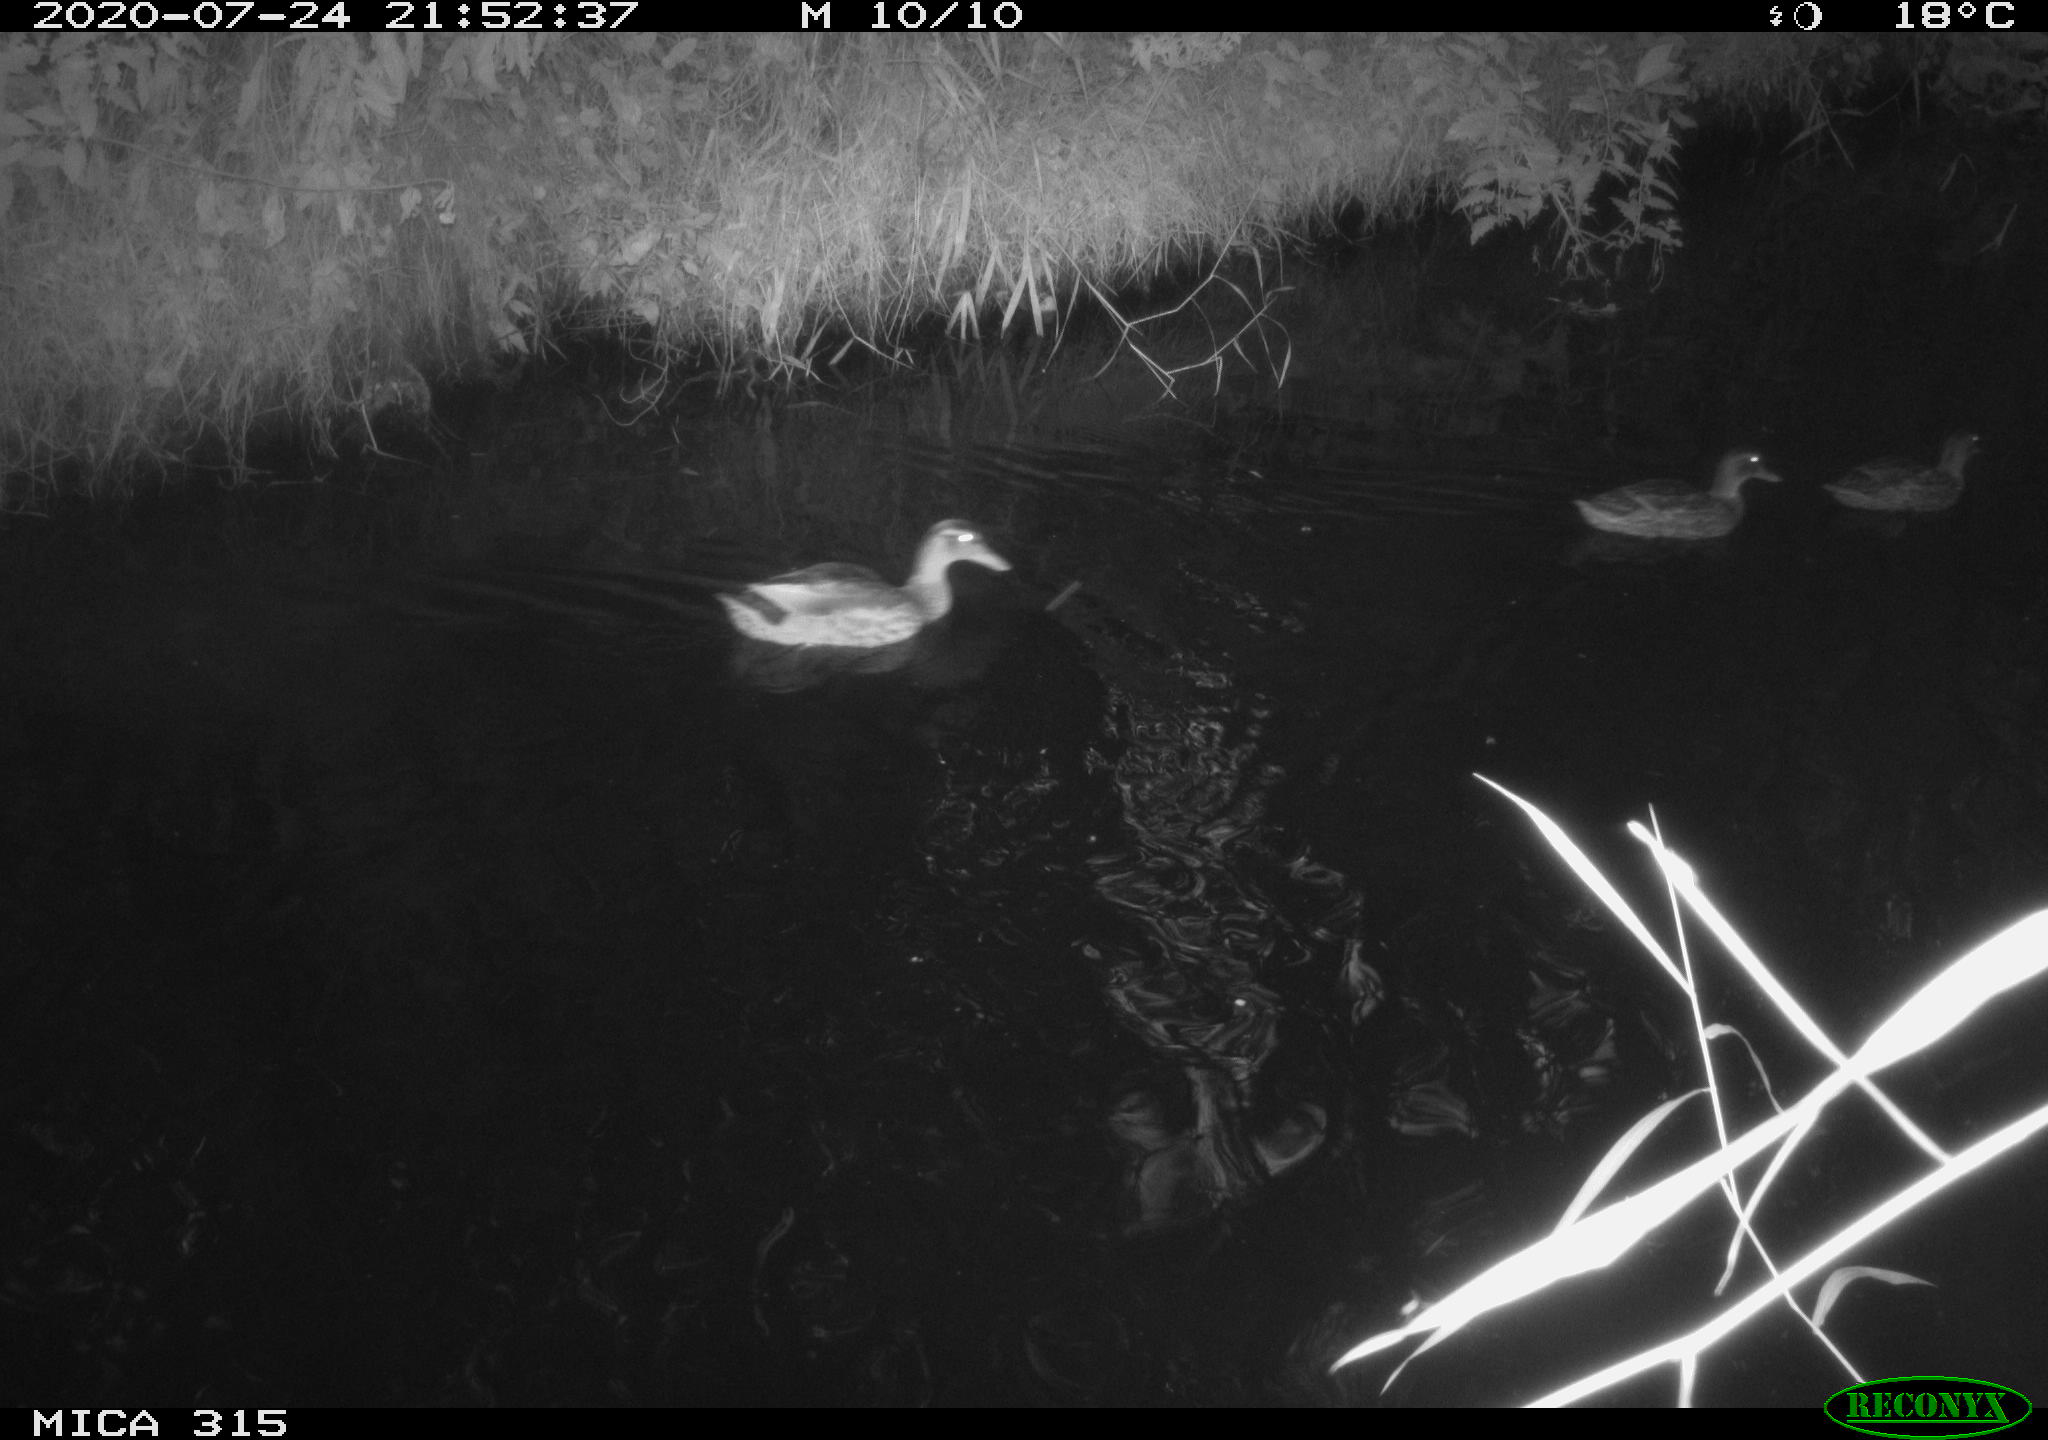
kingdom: Animalia
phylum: Chordata
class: Aves
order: Anseriformes
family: Anatidae
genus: Anas
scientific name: Anas platyrhynchos
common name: Mallard
